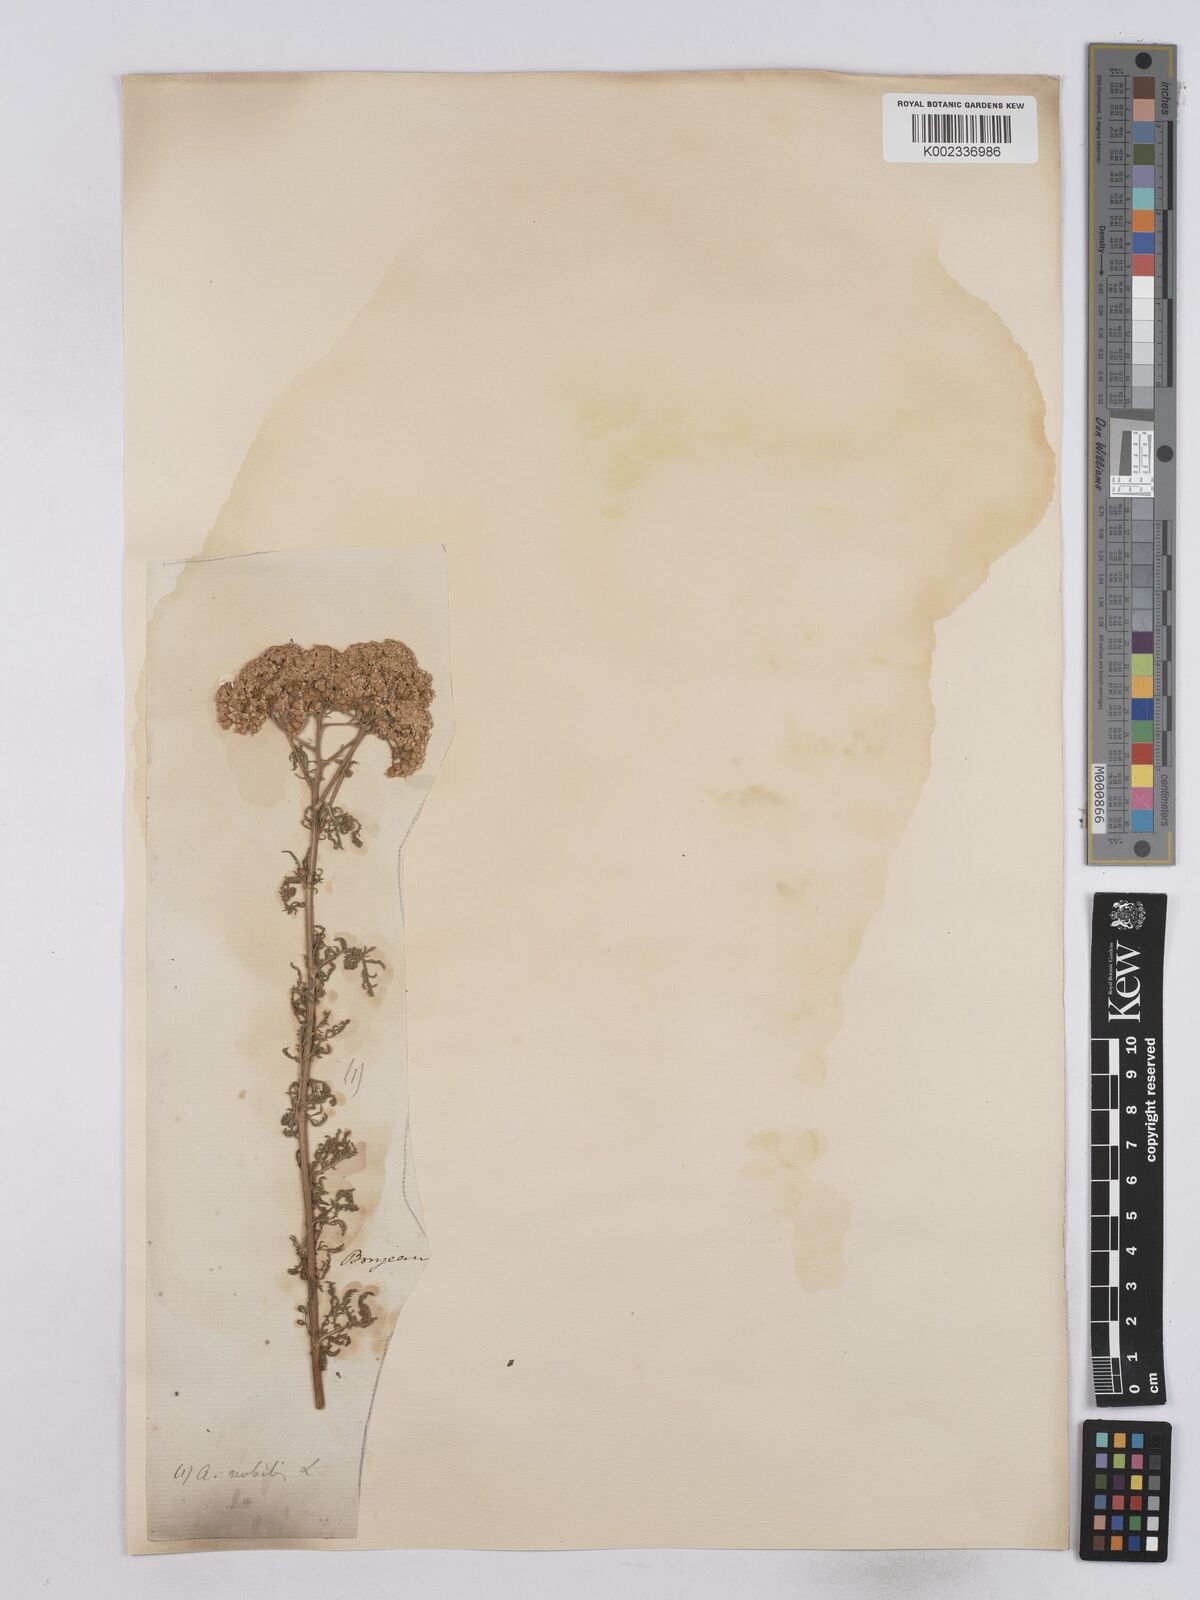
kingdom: Plantae
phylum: Tracheophyta
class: Magnoliopsida
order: Asterales
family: Asteraceae
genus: Achillea
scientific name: Achillea nobilis
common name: Noble yarrow
